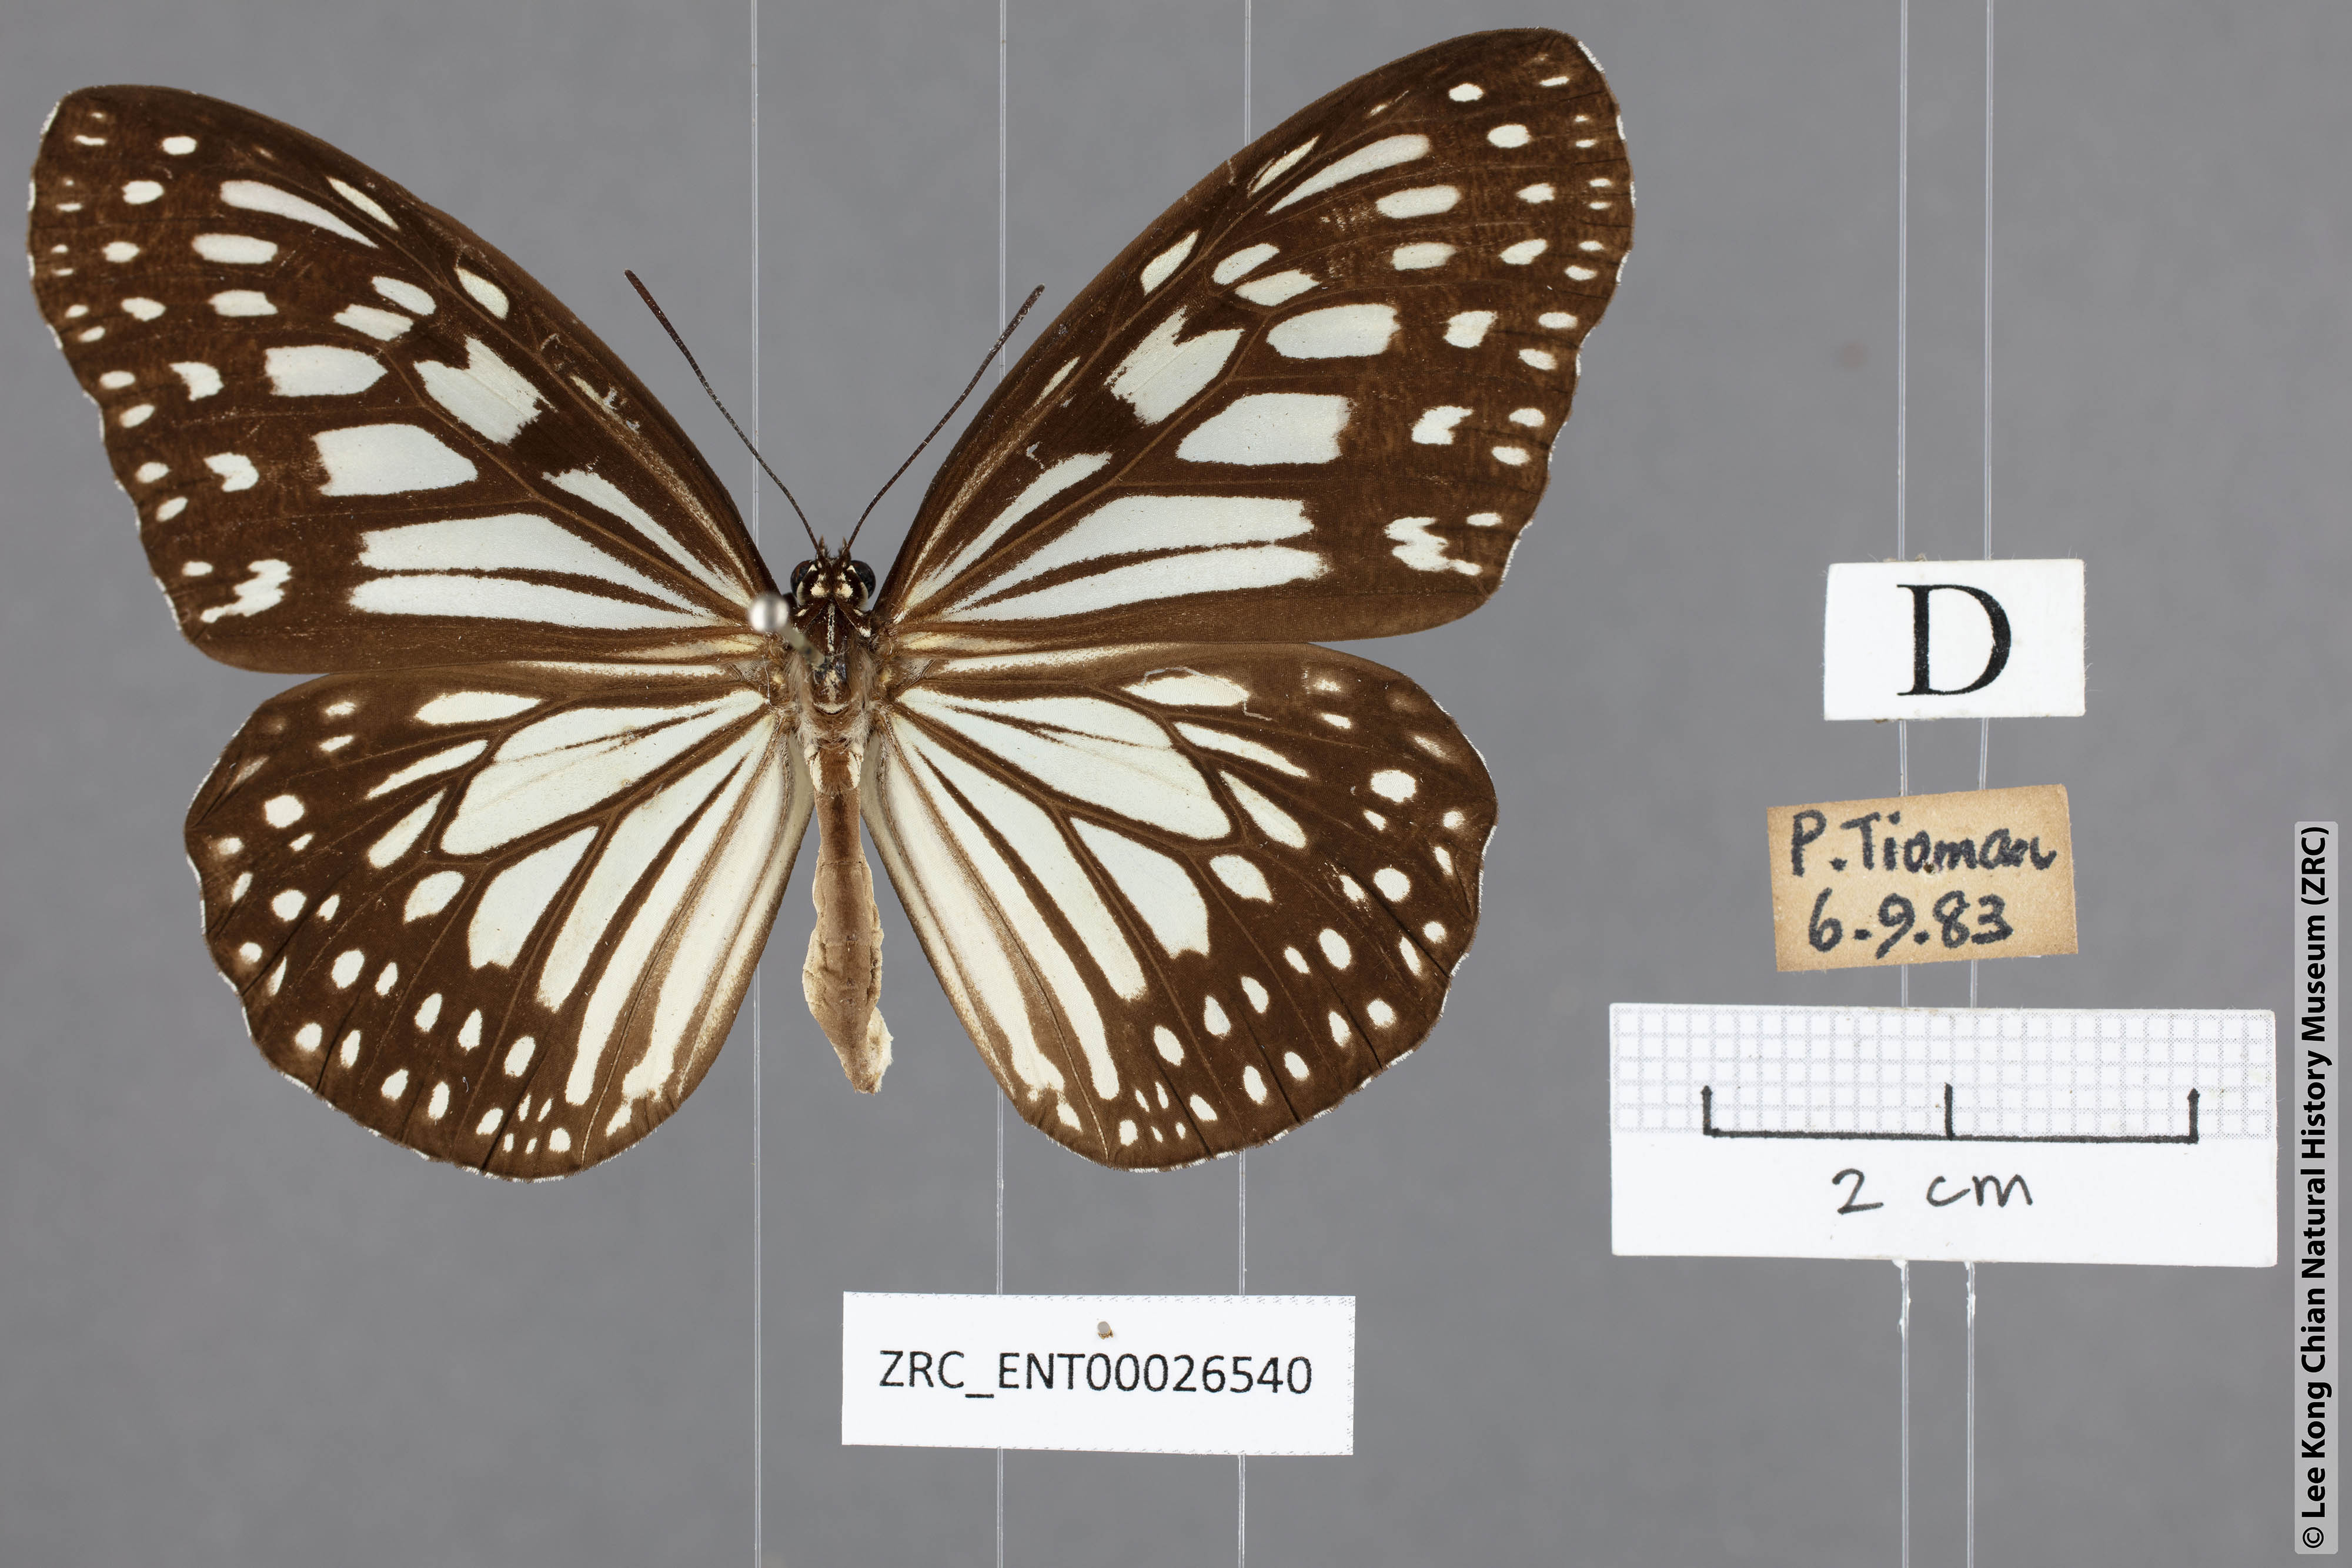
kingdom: Animalia
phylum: Arthropoda
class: Insecta
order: Lepidoptera
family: Nymphalidae
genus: Ideopsis
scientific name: Ideopsis juventa
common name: Grey glassy tiger
